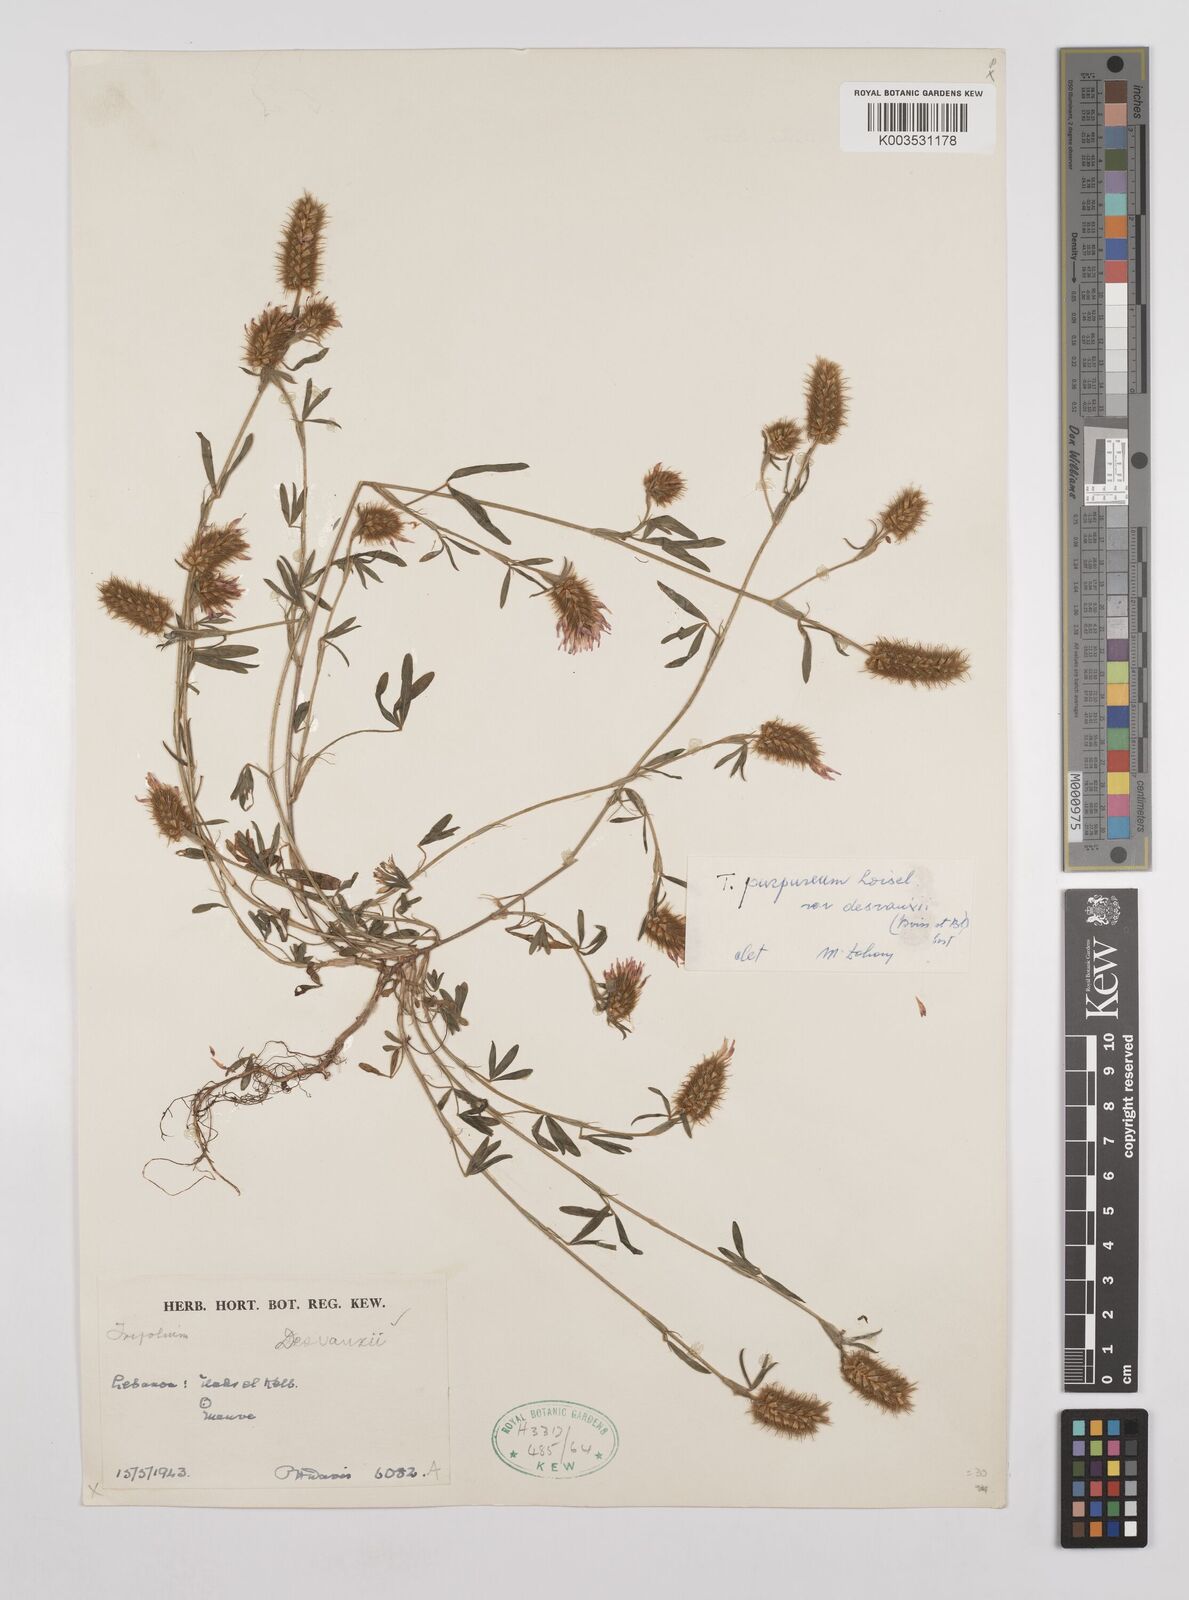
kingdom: Plantae
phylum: Tracheophyta
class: Magnoliopsida
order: Fabales
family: Fabaceae
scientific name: Fabaceae
